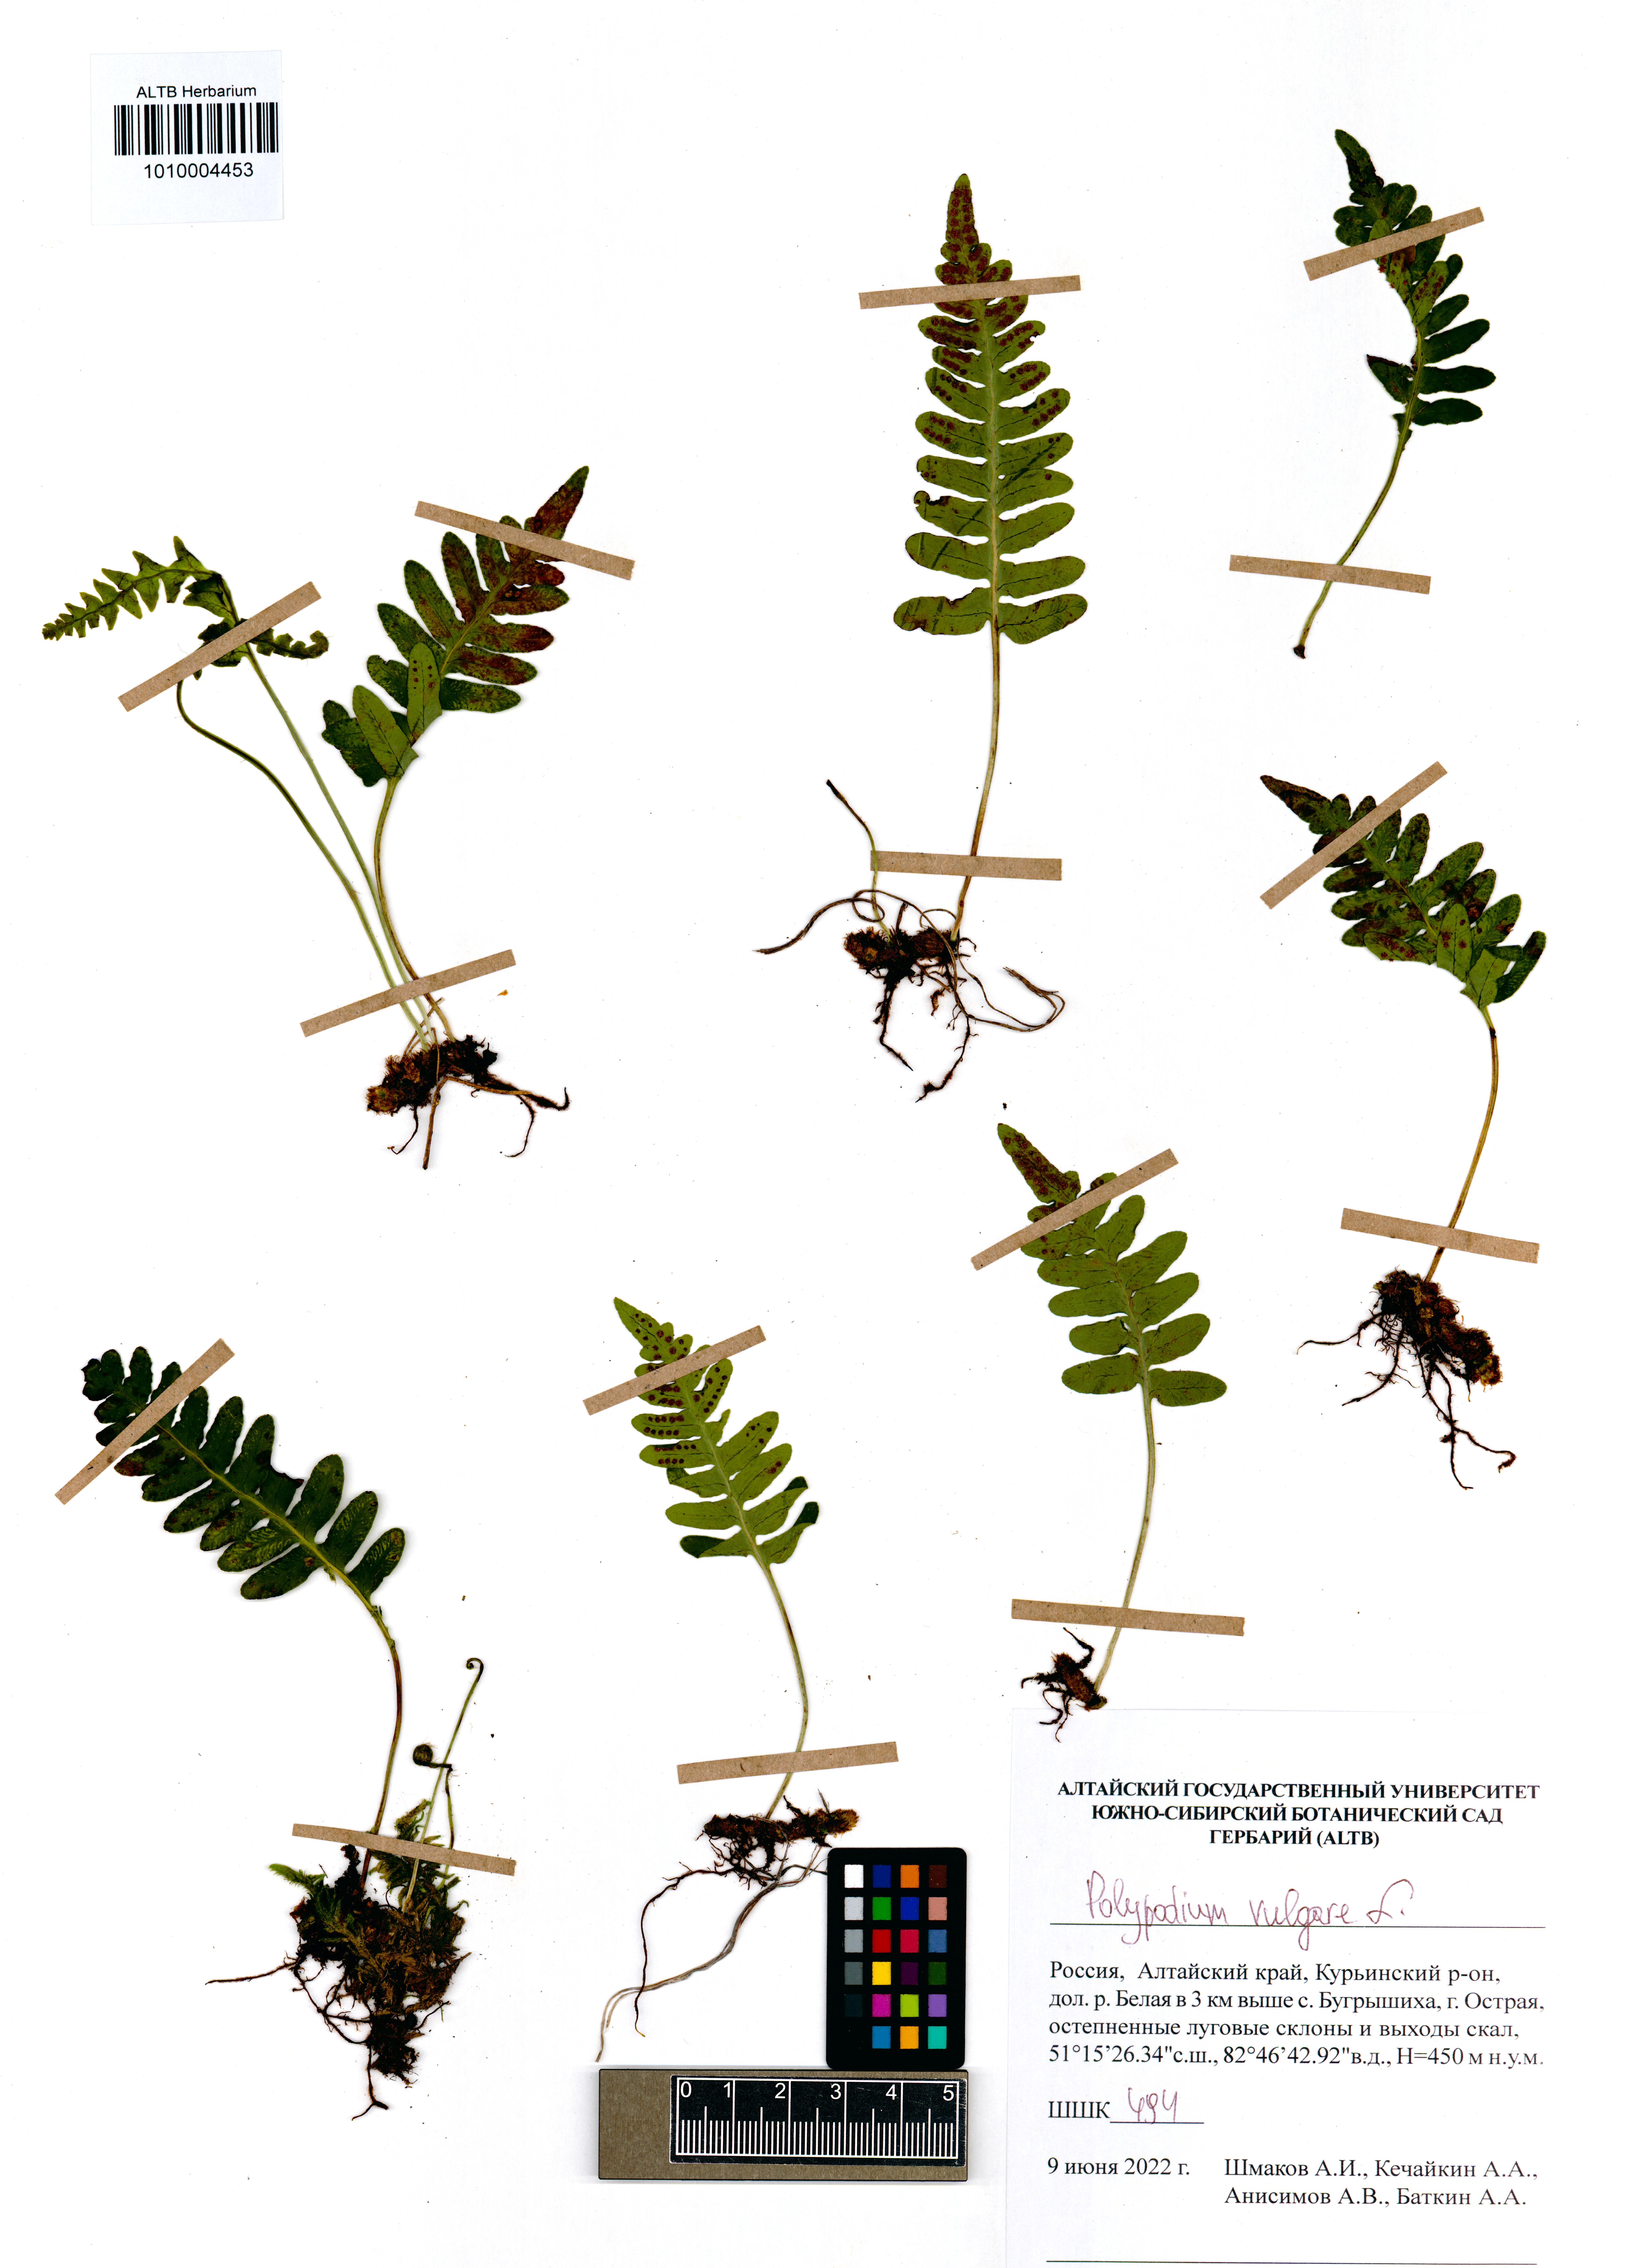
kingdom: Plantae
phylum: Tracheophyta
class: Polypodiopsida
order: Polypodiales
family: Polypodiaceae
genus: Polypodium
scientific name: Polypodium vulgare
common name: Common polypody
